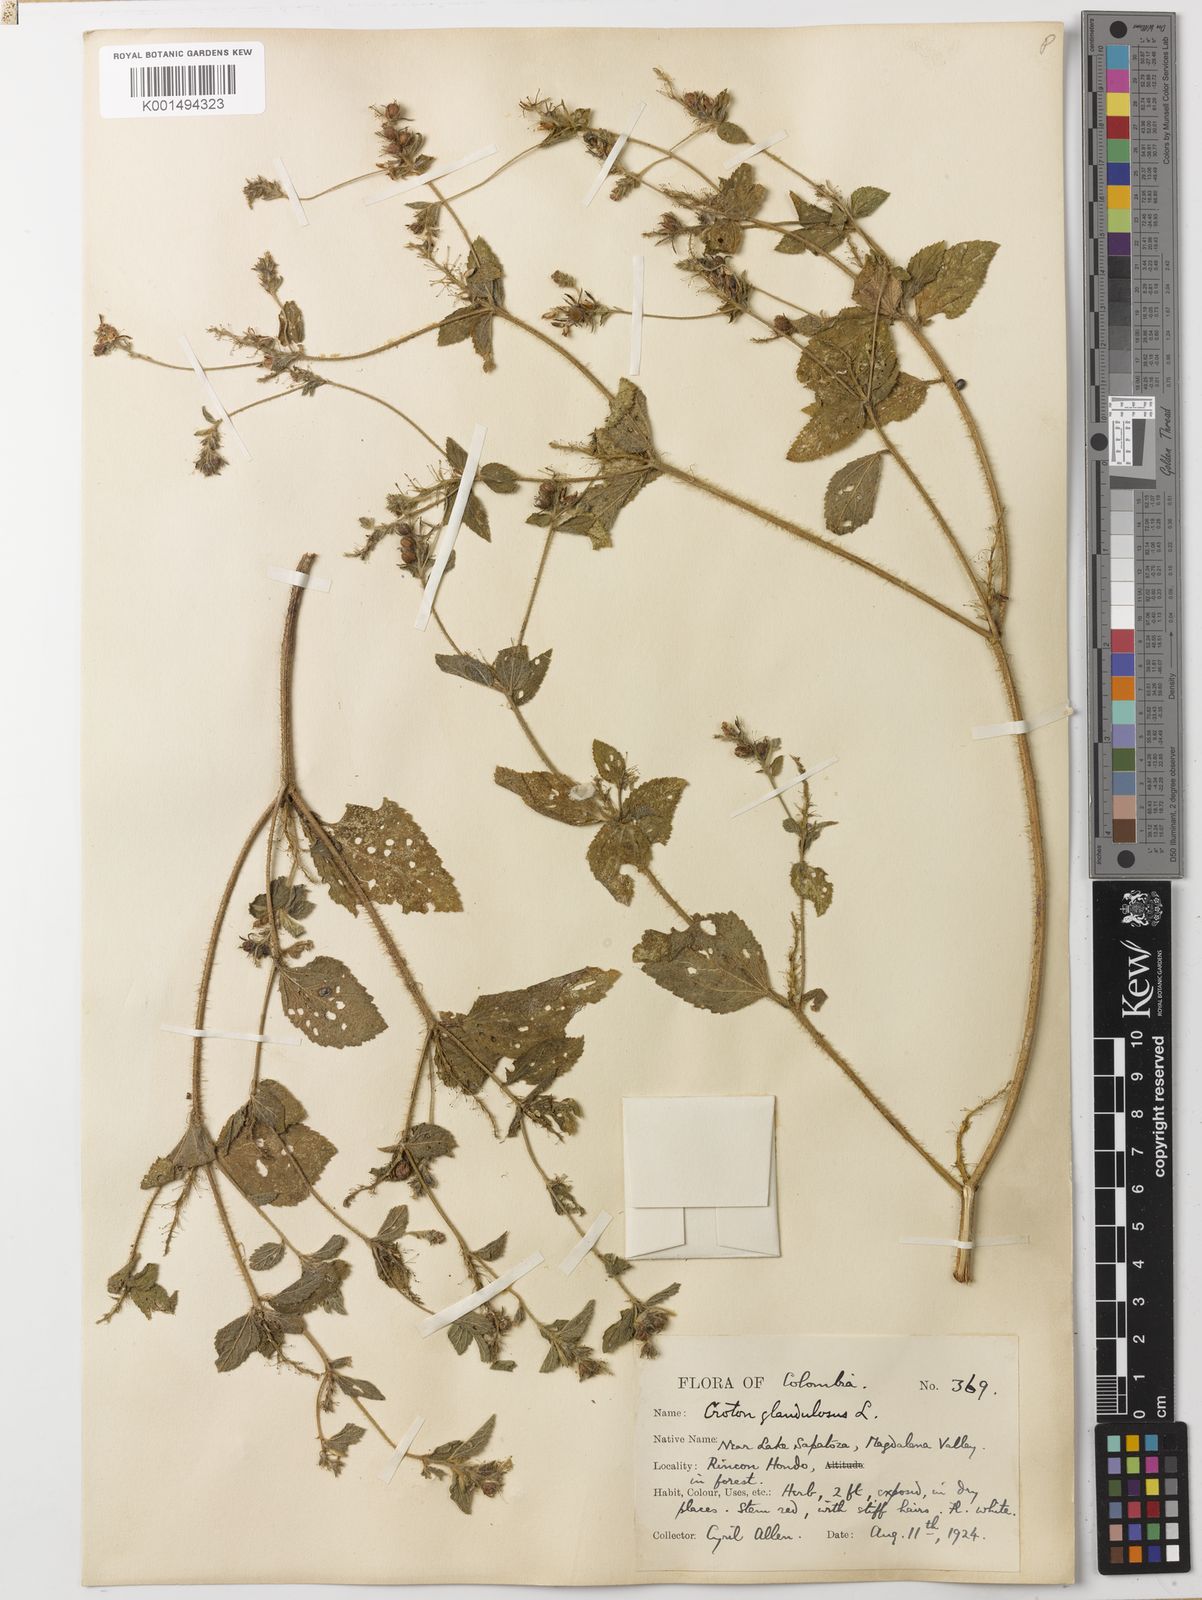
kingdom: Plantae
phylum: Tracheophyta
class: Magnoliopsida
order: Malpighiales
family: Euphorbiaceae
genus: Croton
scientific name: Croton hirtus
